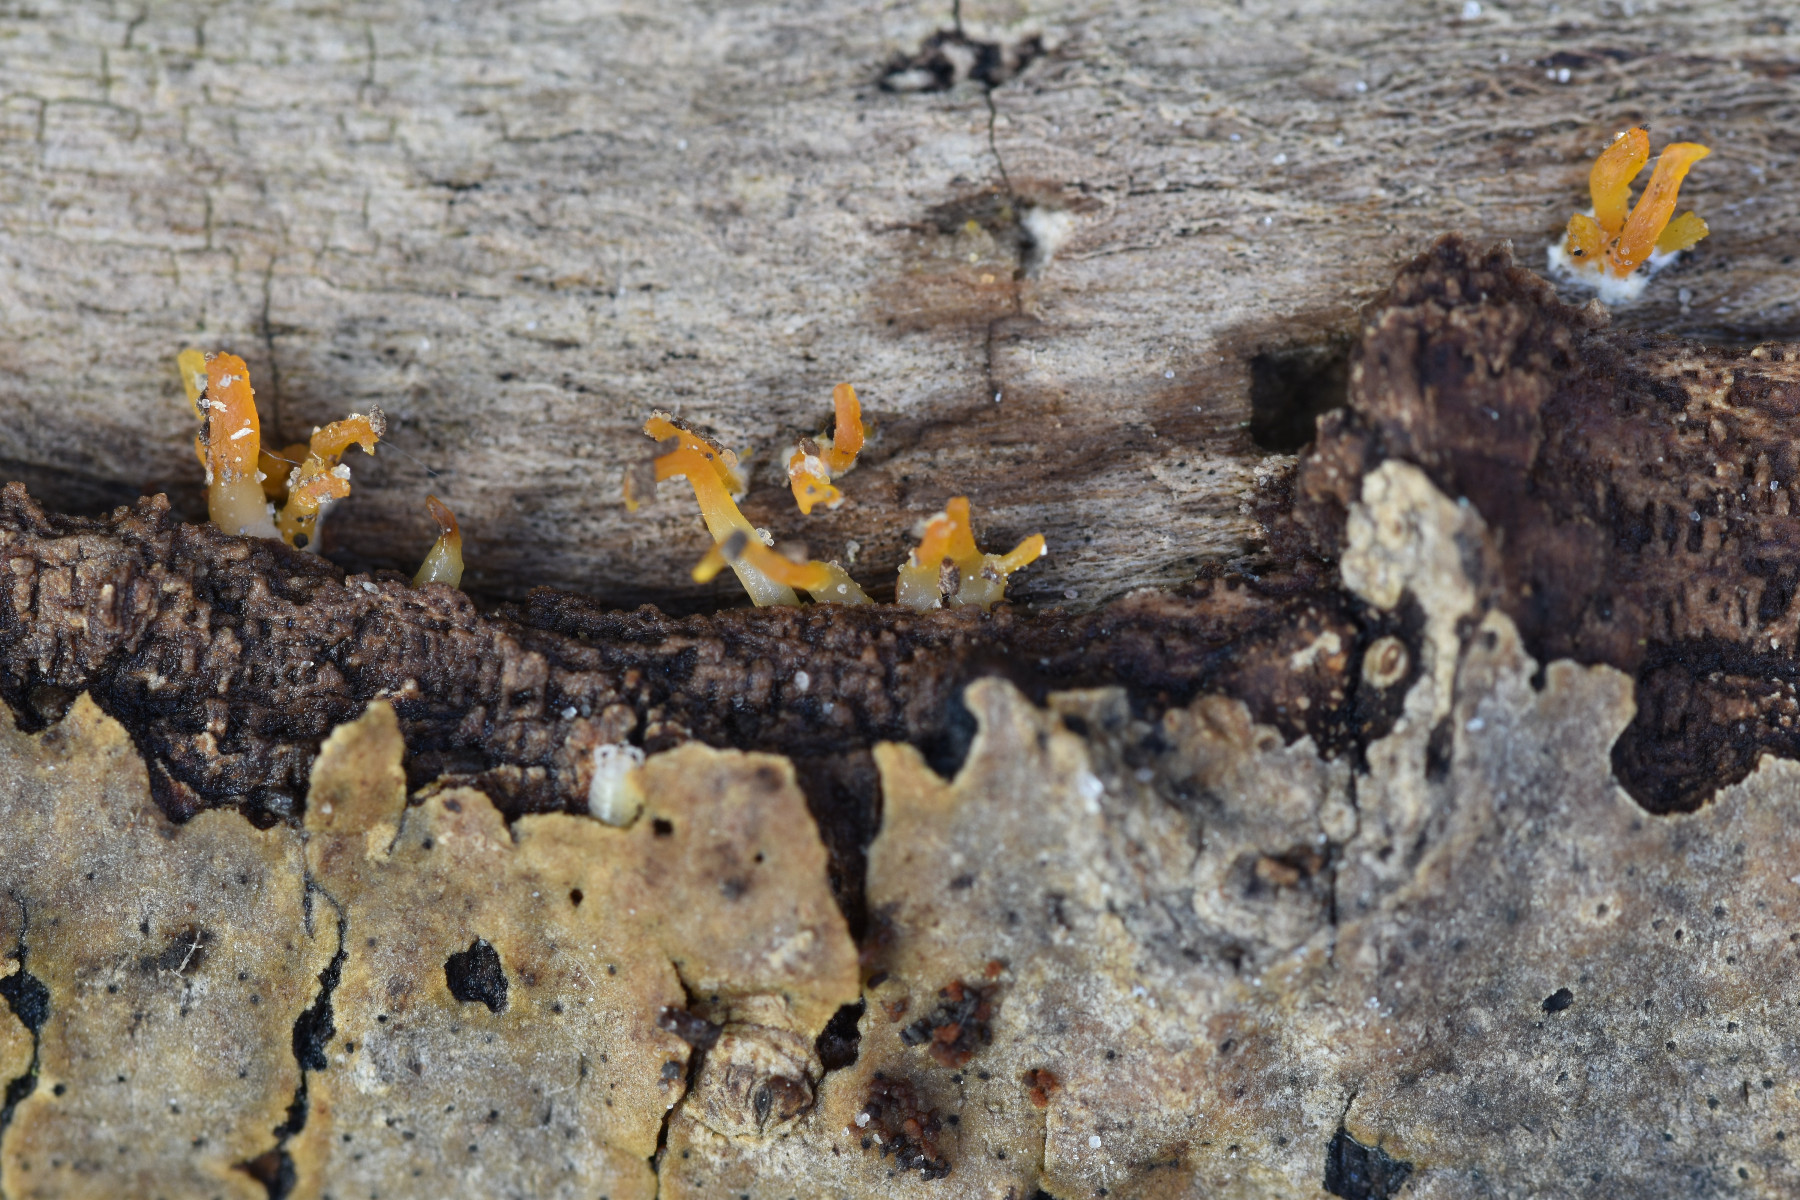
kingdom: Fungi
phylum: Basidiomycota
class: Dacrymycetes
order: Dacrymycetales
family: Dacrymycetaceae
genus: Calocera
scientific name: Calocera cornea
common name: liden guldgaffel
